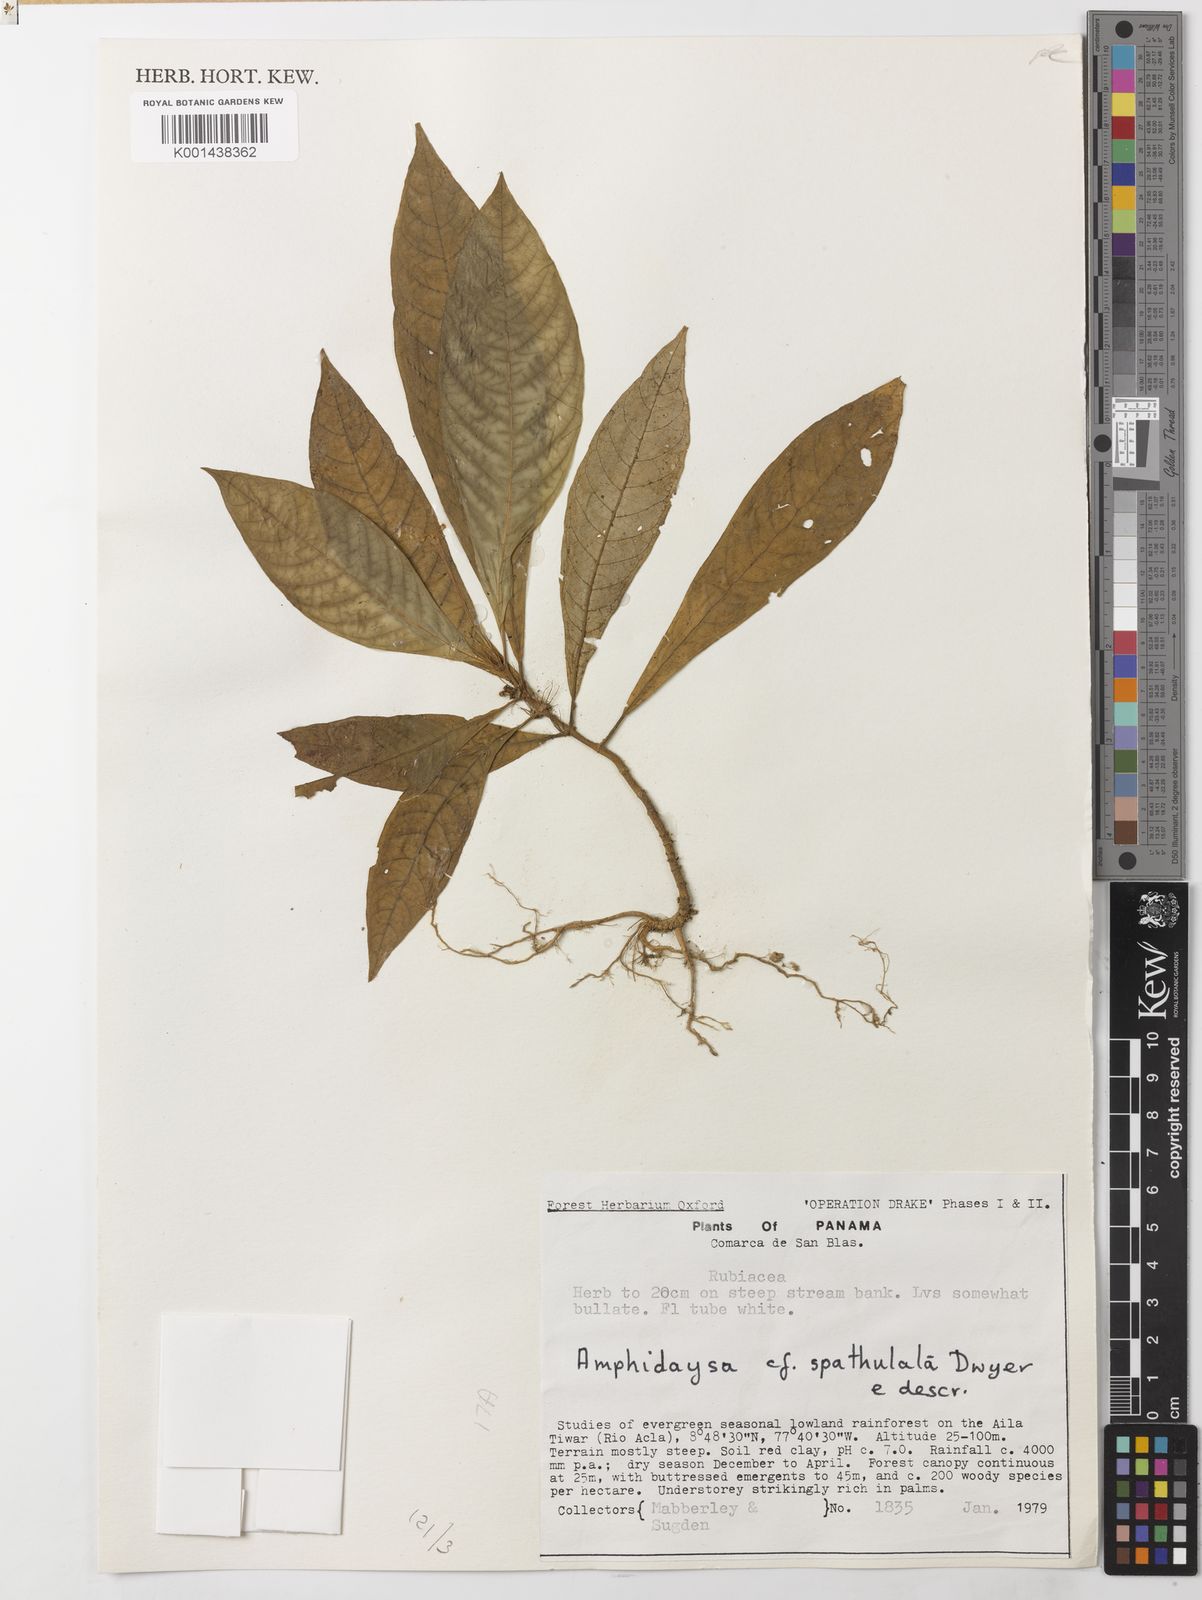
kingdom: Plantae
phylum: Tracheophyta
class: Magnoliopsida
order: Gentianales
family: Rubiaceae
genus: Amphidasya
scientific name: Amphidasya spathulata
